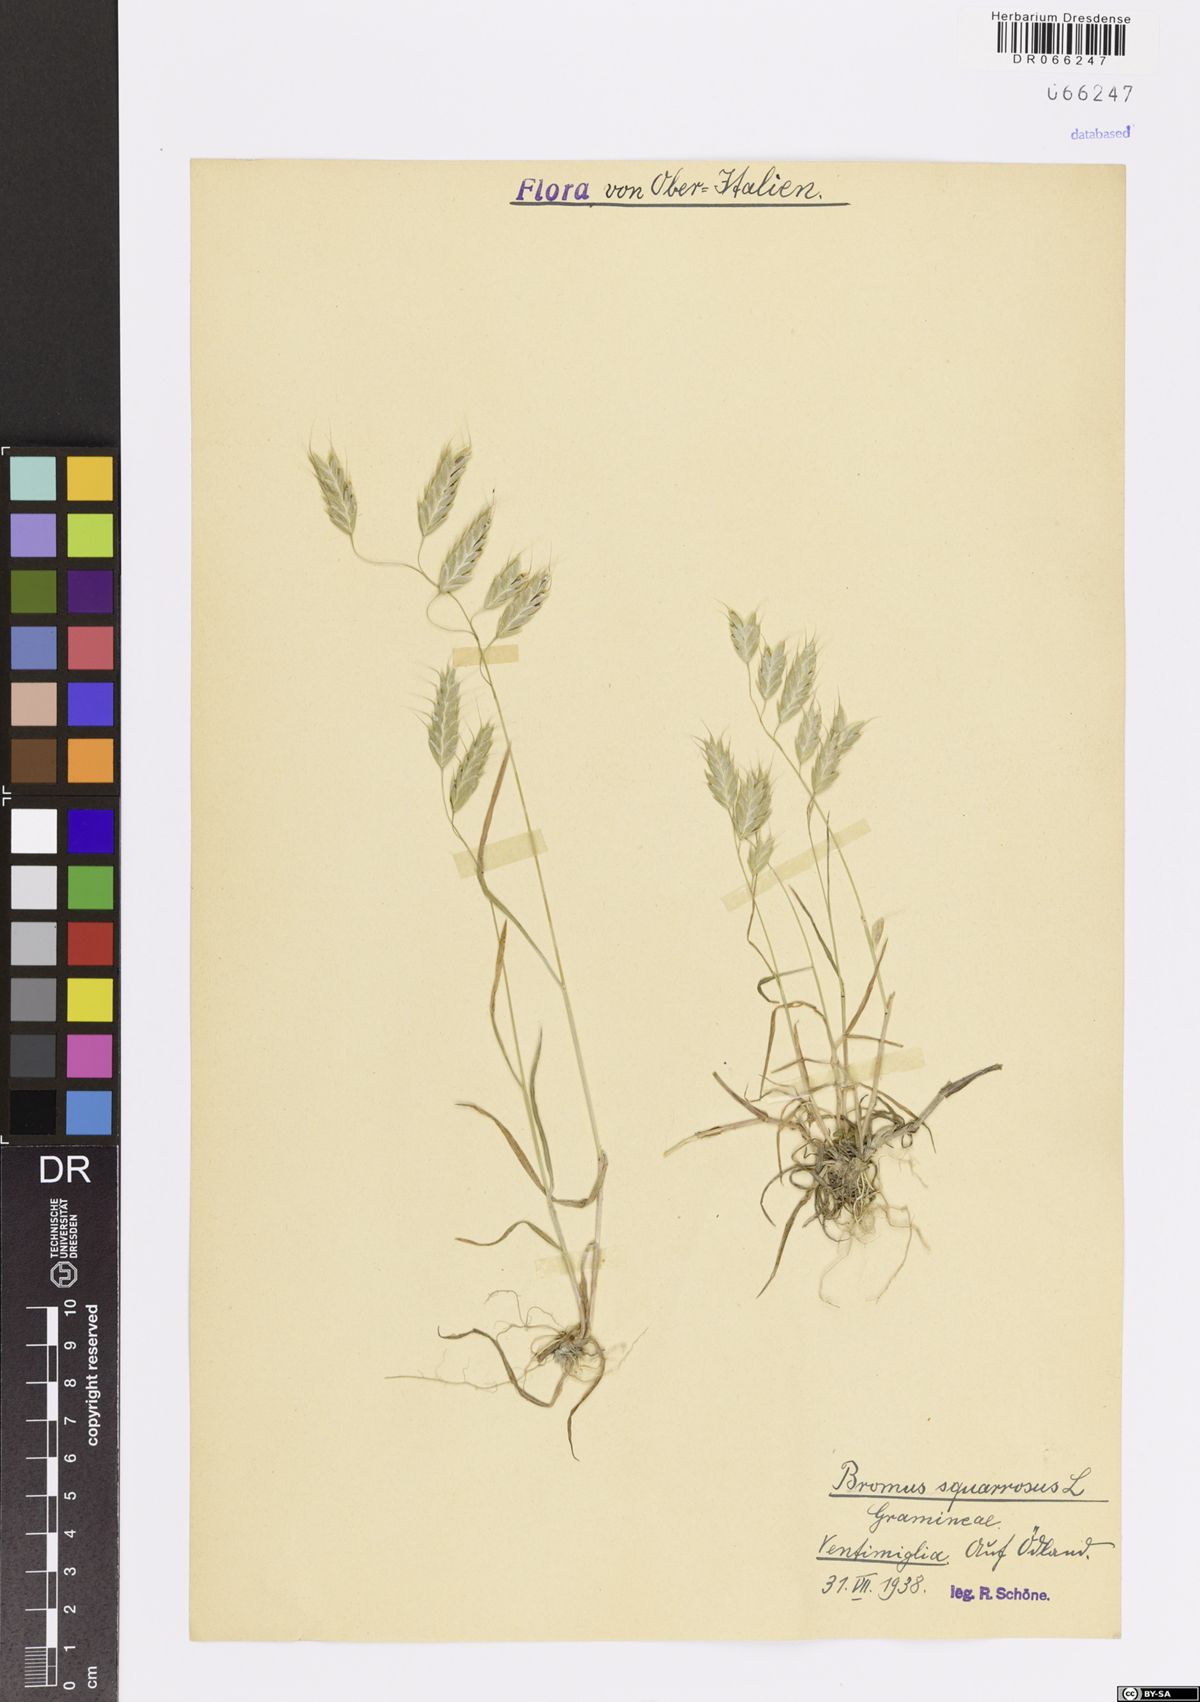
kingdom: Plantae
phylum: Tracheophyta
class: Liliopsida
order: Poales
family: Poaceae
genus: Bromus
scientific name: Bromus squarrosus
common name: Corn brome
